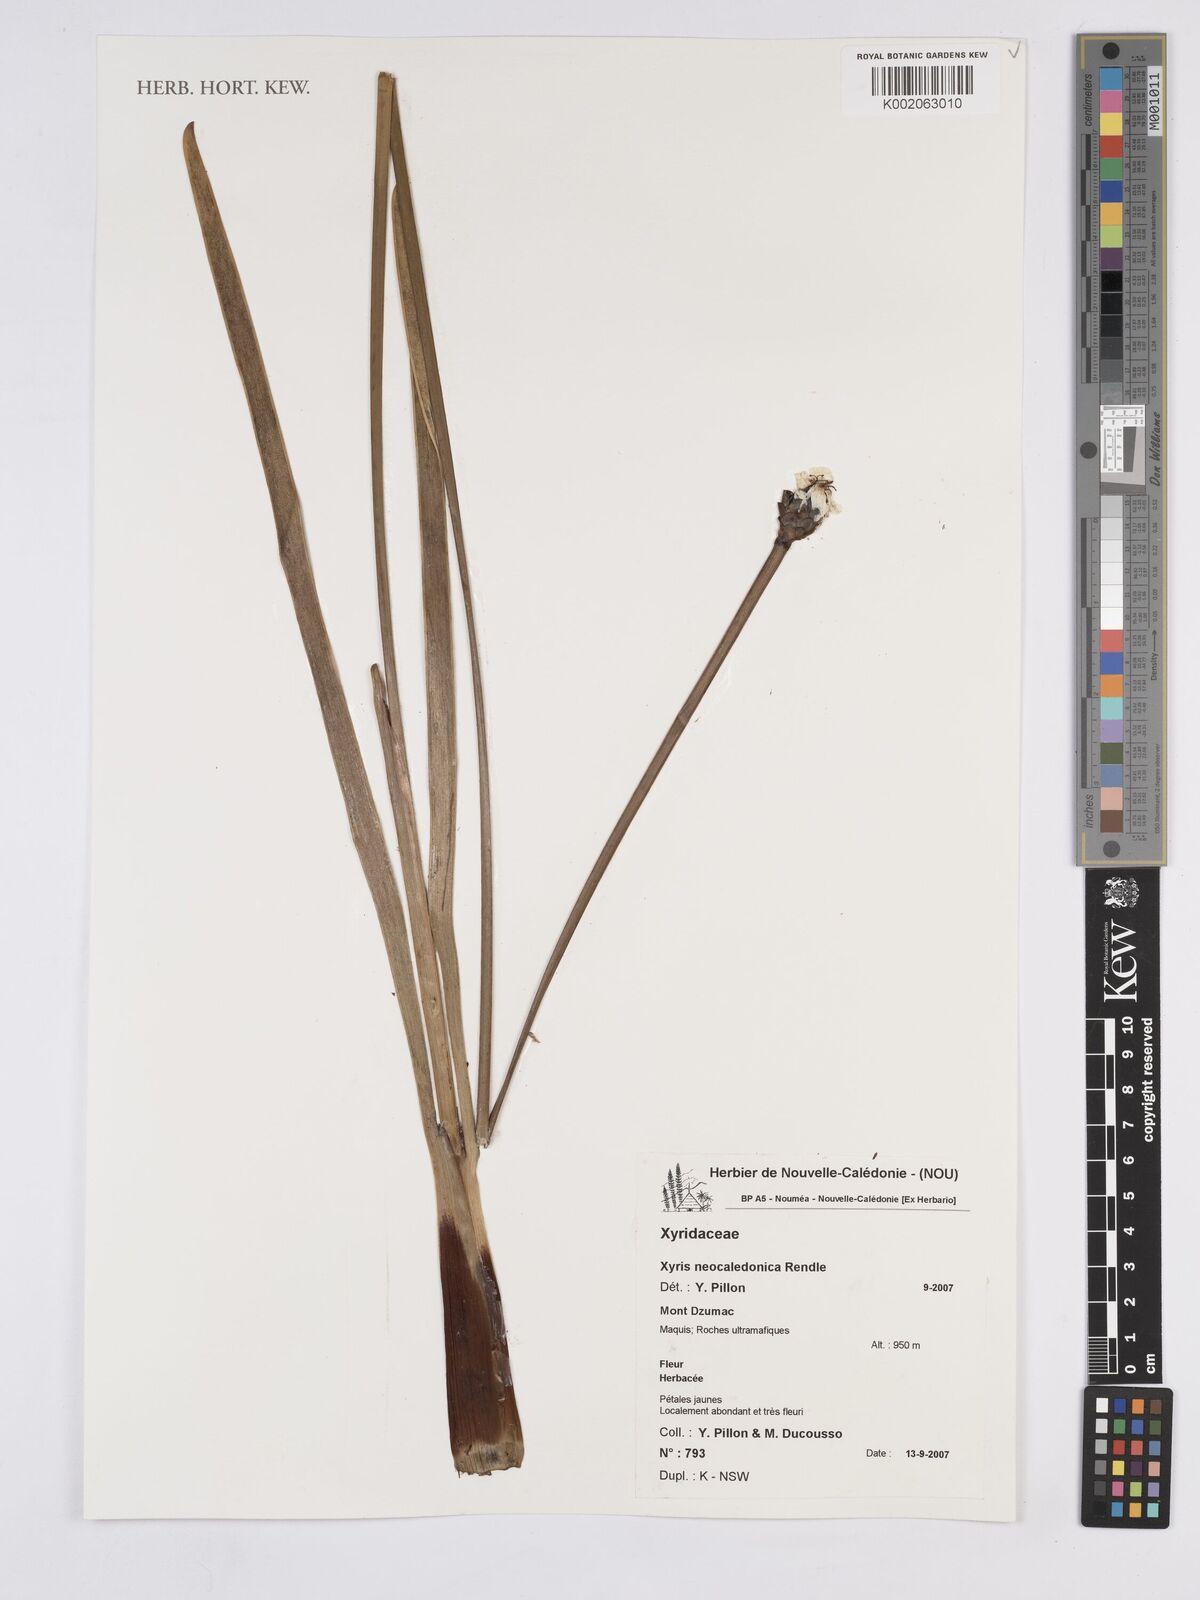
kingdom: Plantae
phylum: Tracheophyta
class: Liliopsida
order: Poales
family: Xyridaceae
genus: Xyris
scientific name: Xyris neocaledonica
